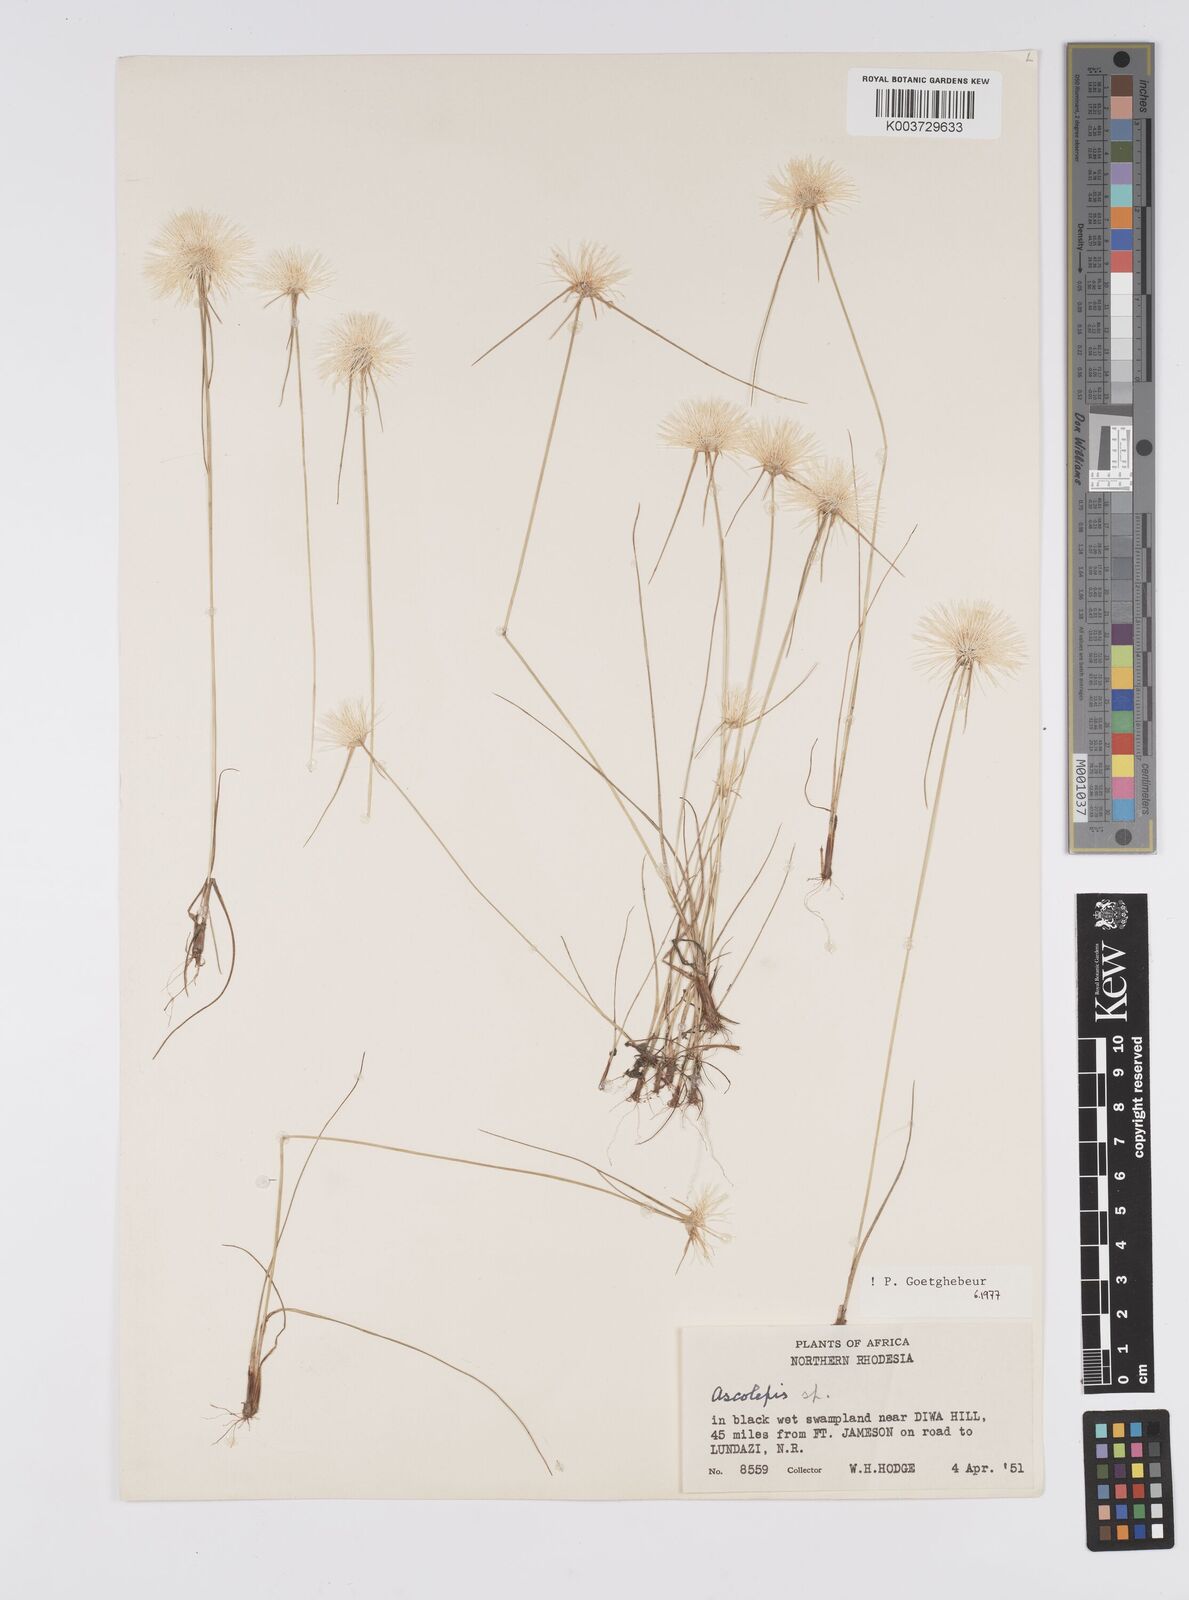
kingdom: Plantae
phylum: Tracheophyta
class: Liliopsida
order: Poales
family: Cyperaceae
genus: Cyperus
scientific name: Cyperus
